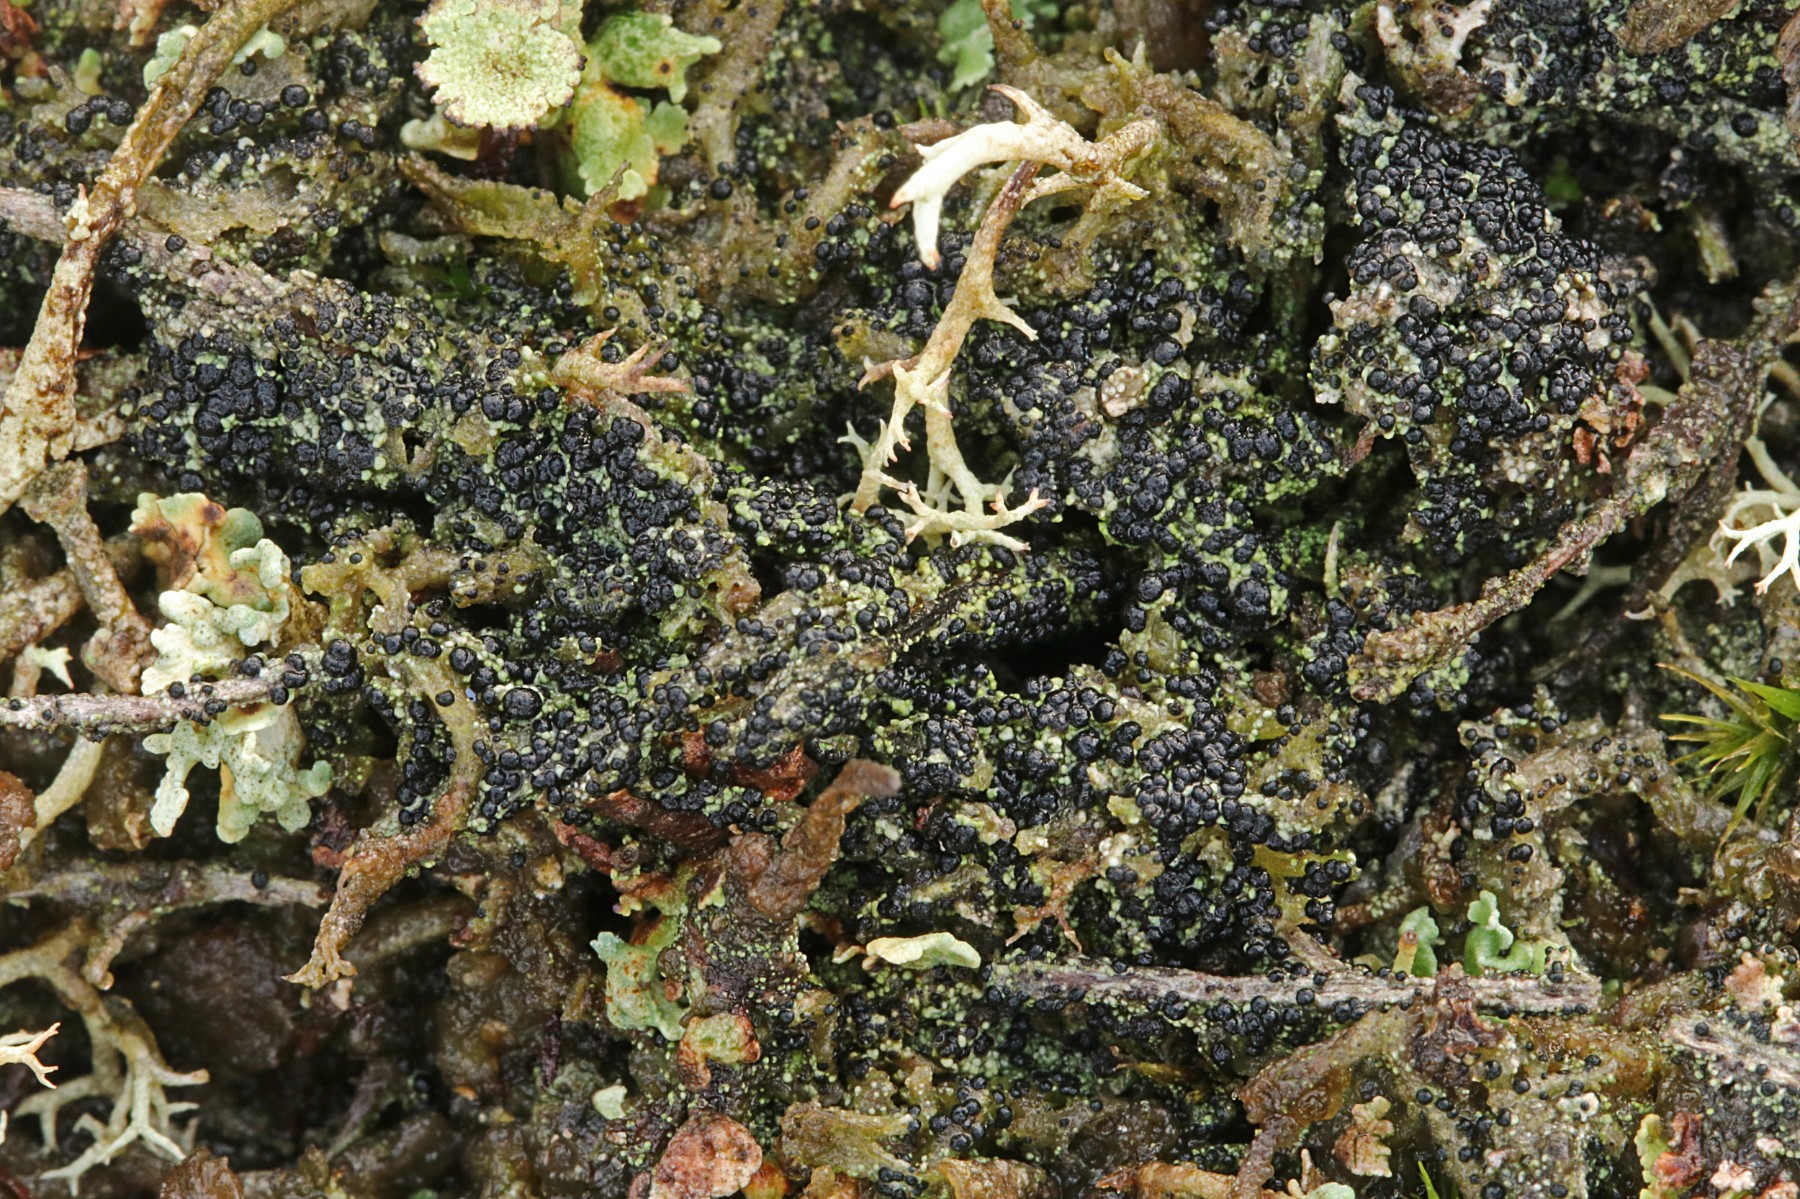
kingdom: Fungi
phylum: Ascomycota
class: Lecanoromycetes
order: Lecanorales
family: Byssolomataceae
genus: Micarea
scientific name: Micarea lignaria
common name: tørve-knaplav
